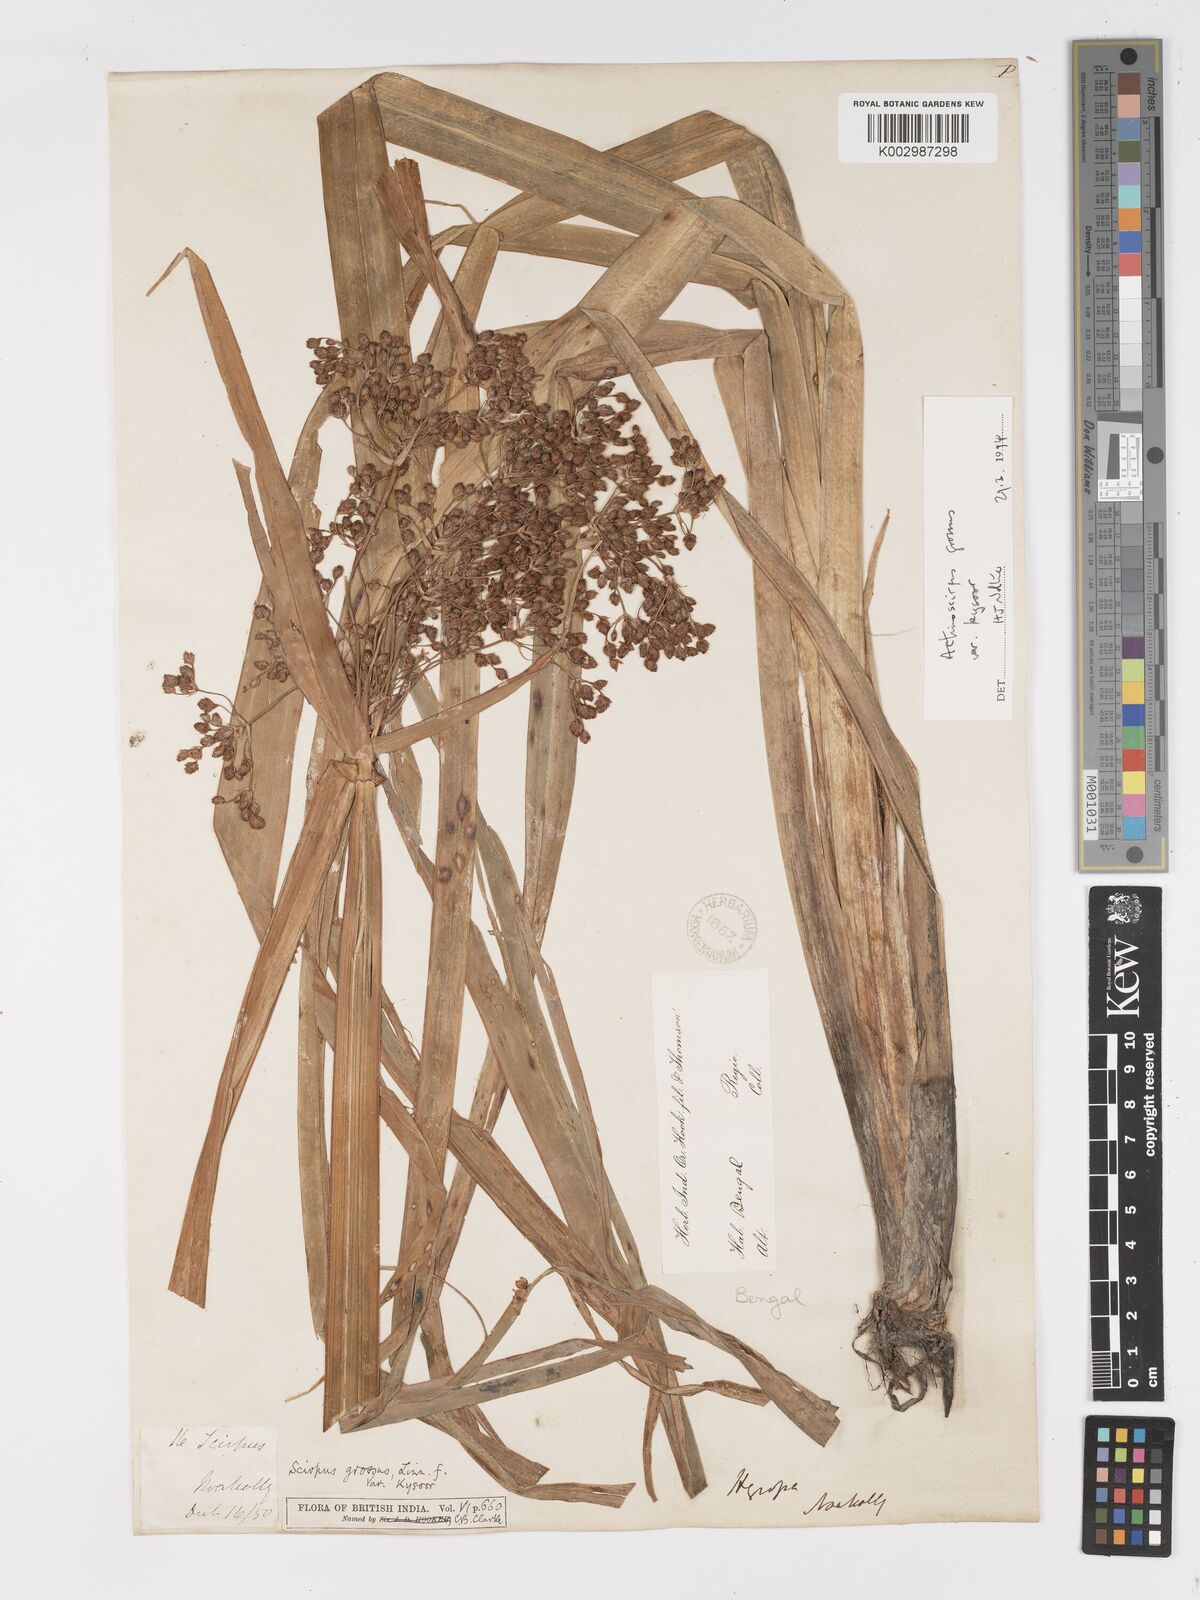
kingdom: Plantae
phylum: Tracheophyta
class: Liliopsida
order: Poales
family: Cyperaceae
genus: Actinoscirpus
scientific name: Actinoscirpus grossus
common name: Giant bur rush
